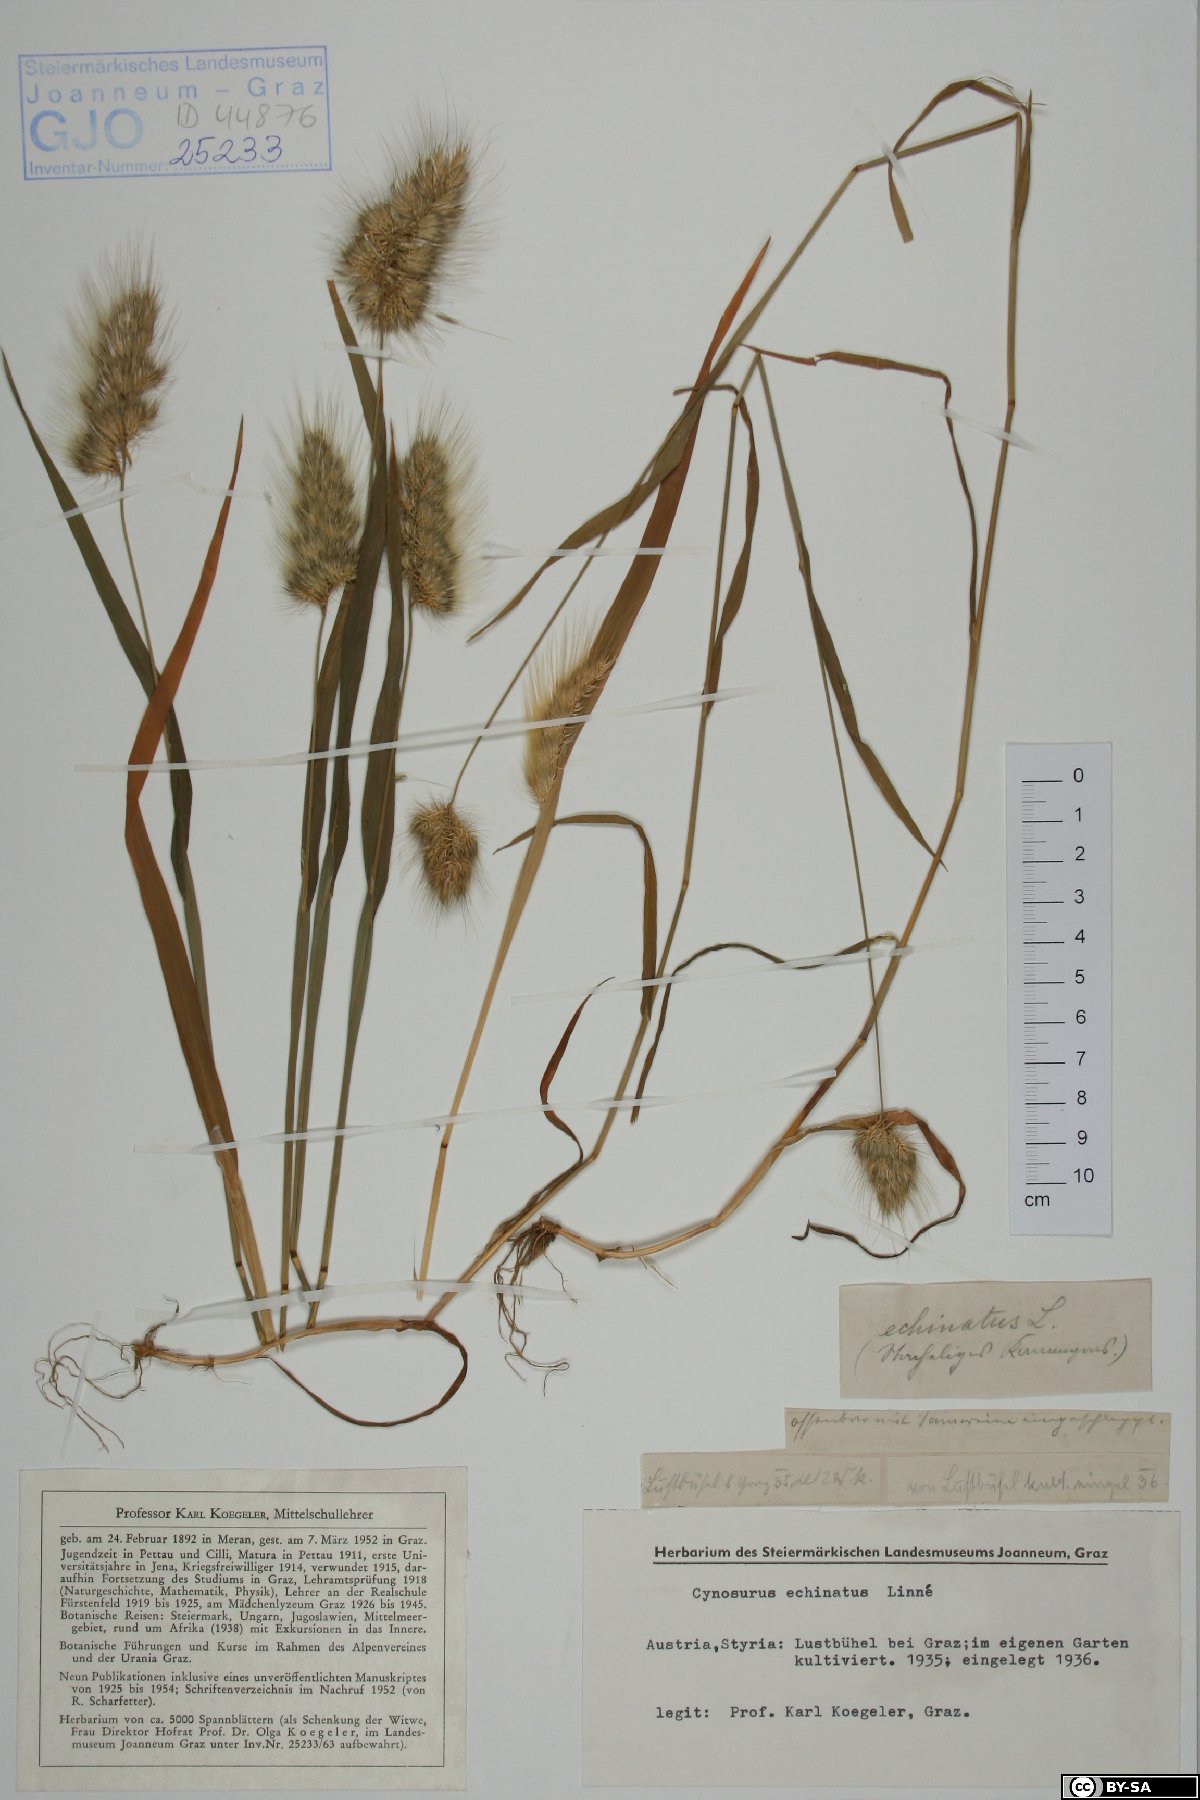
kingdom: Plantae
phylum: Tracheophyta
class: Liliopsida
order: Poales
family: Poaceae
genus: Cynosurus
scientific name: Cynosurus echinatus
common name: Rough dog's-tail
